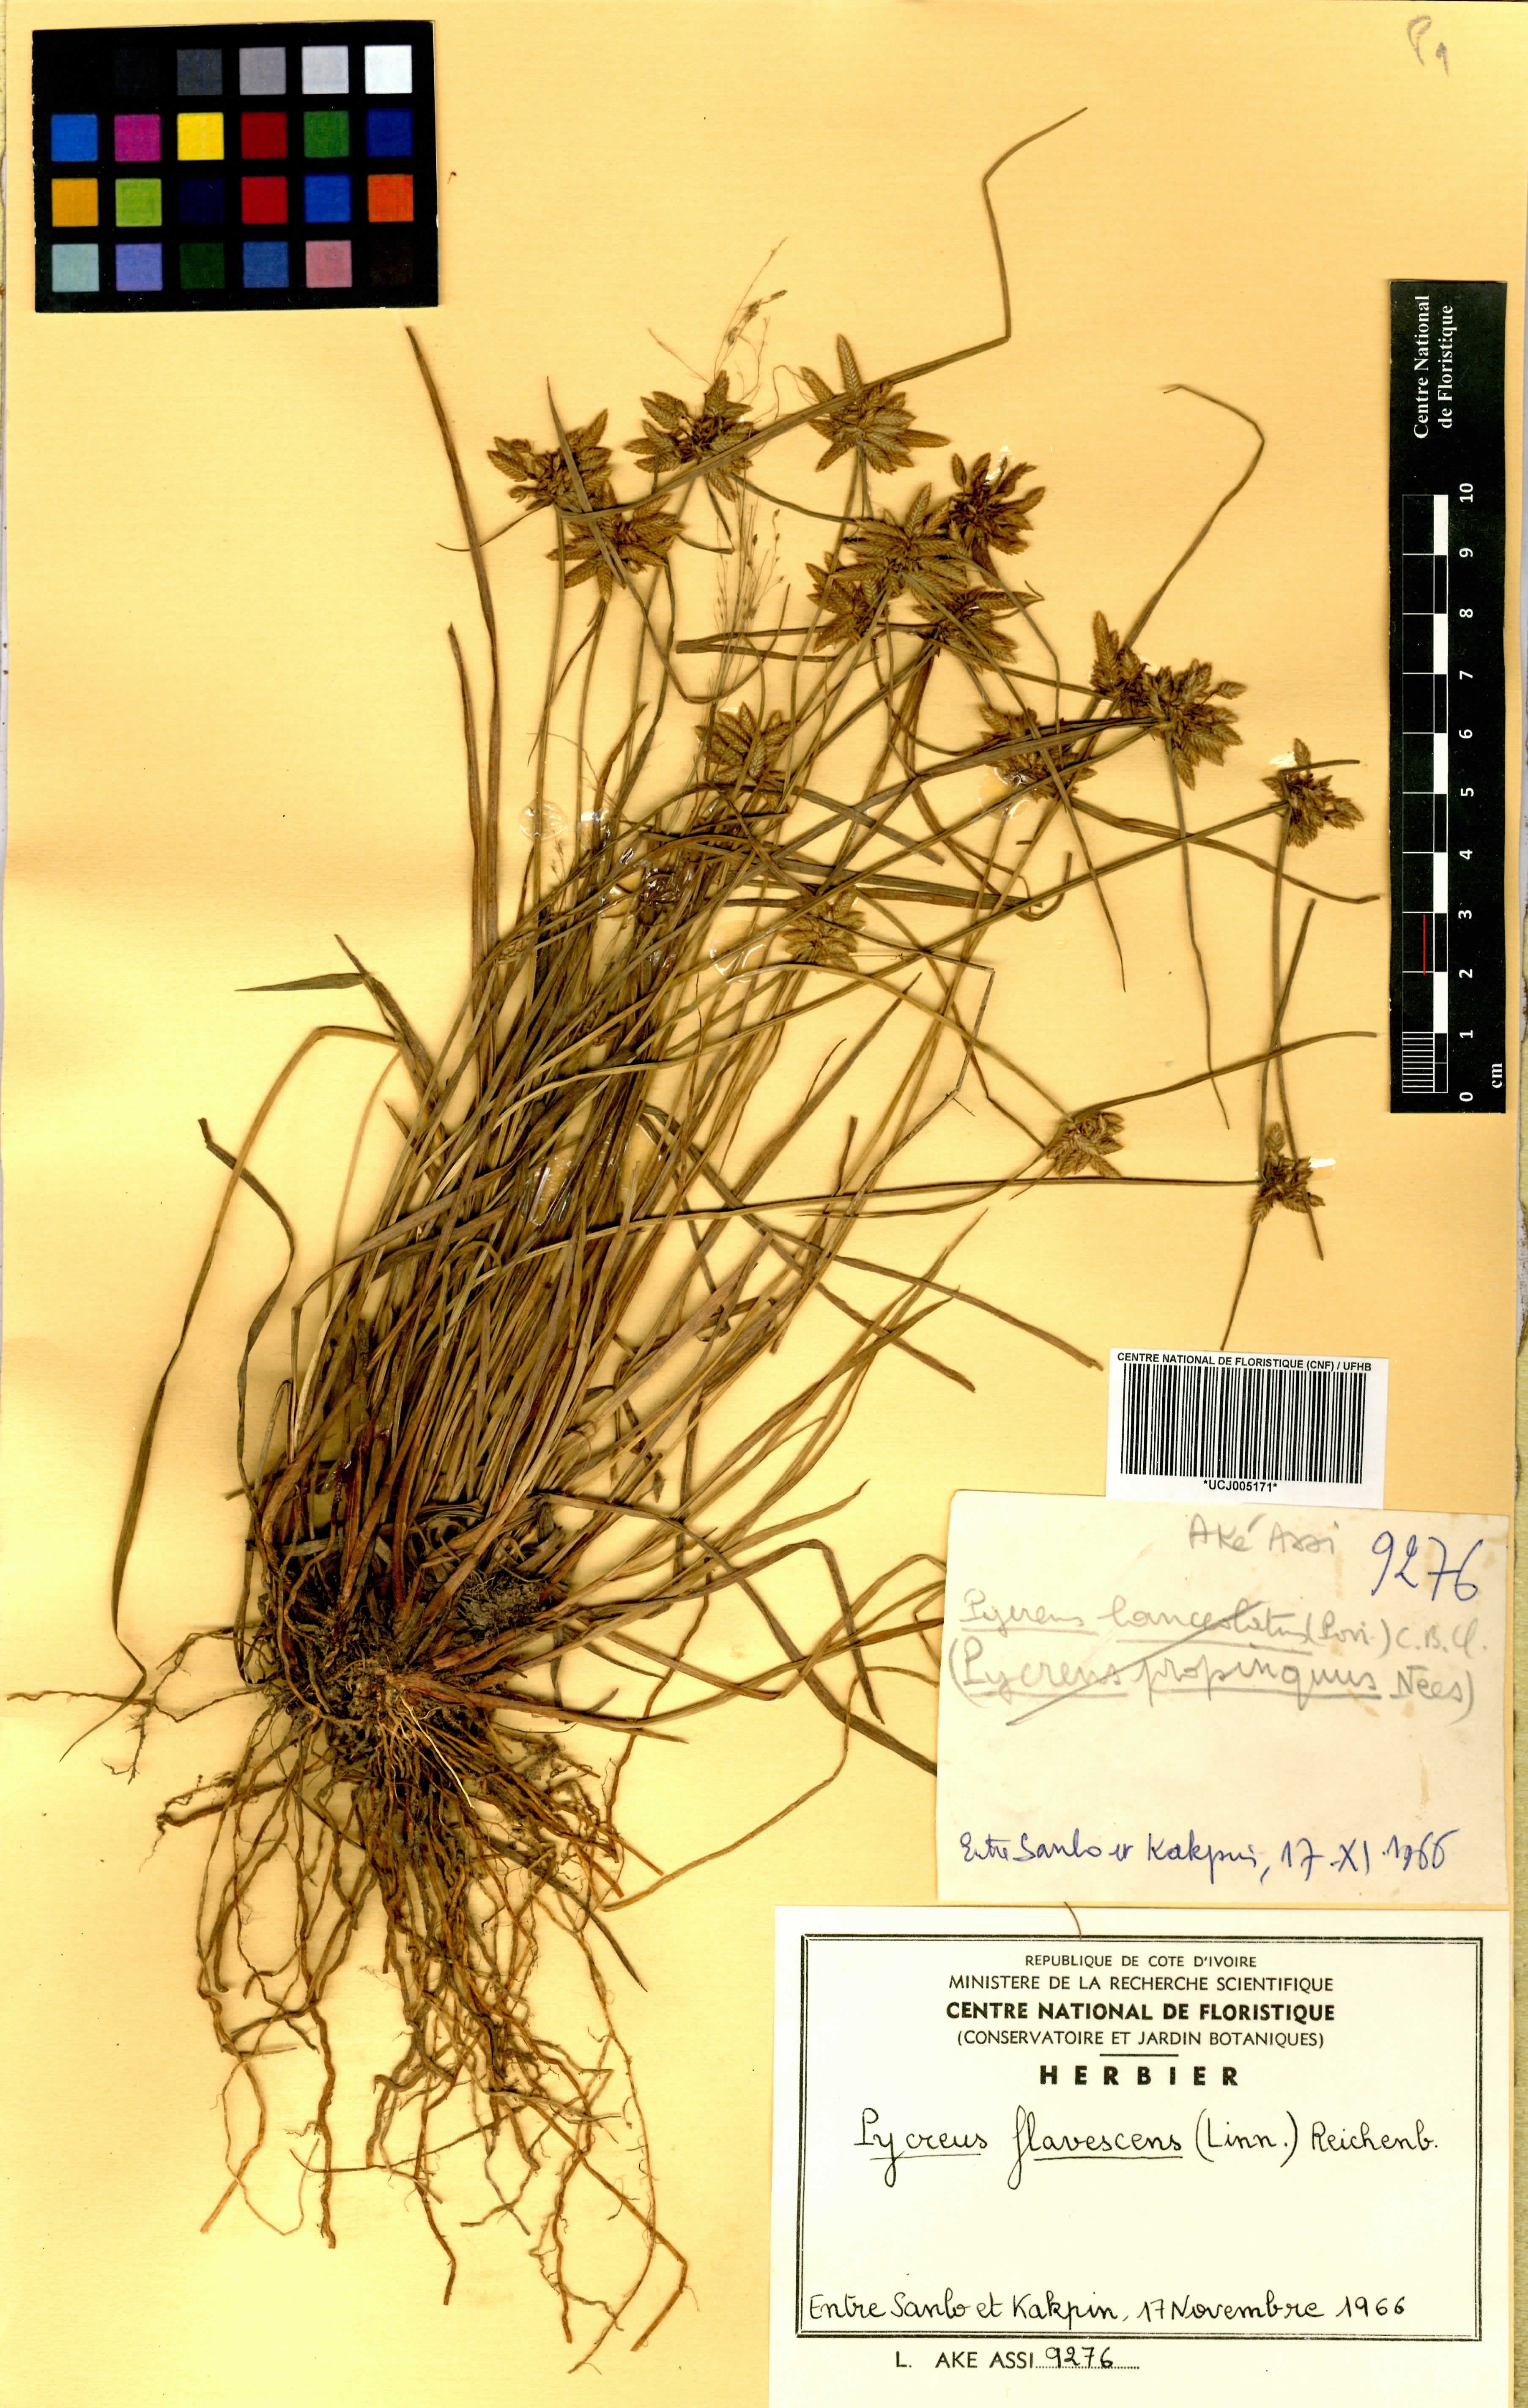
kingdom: Plantae
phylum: Tracheophyta
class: Liliopsida
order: Poales
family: Cyperaceae
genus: Cyperus
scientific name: Cyperus flavescens
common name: Yellow galingale
